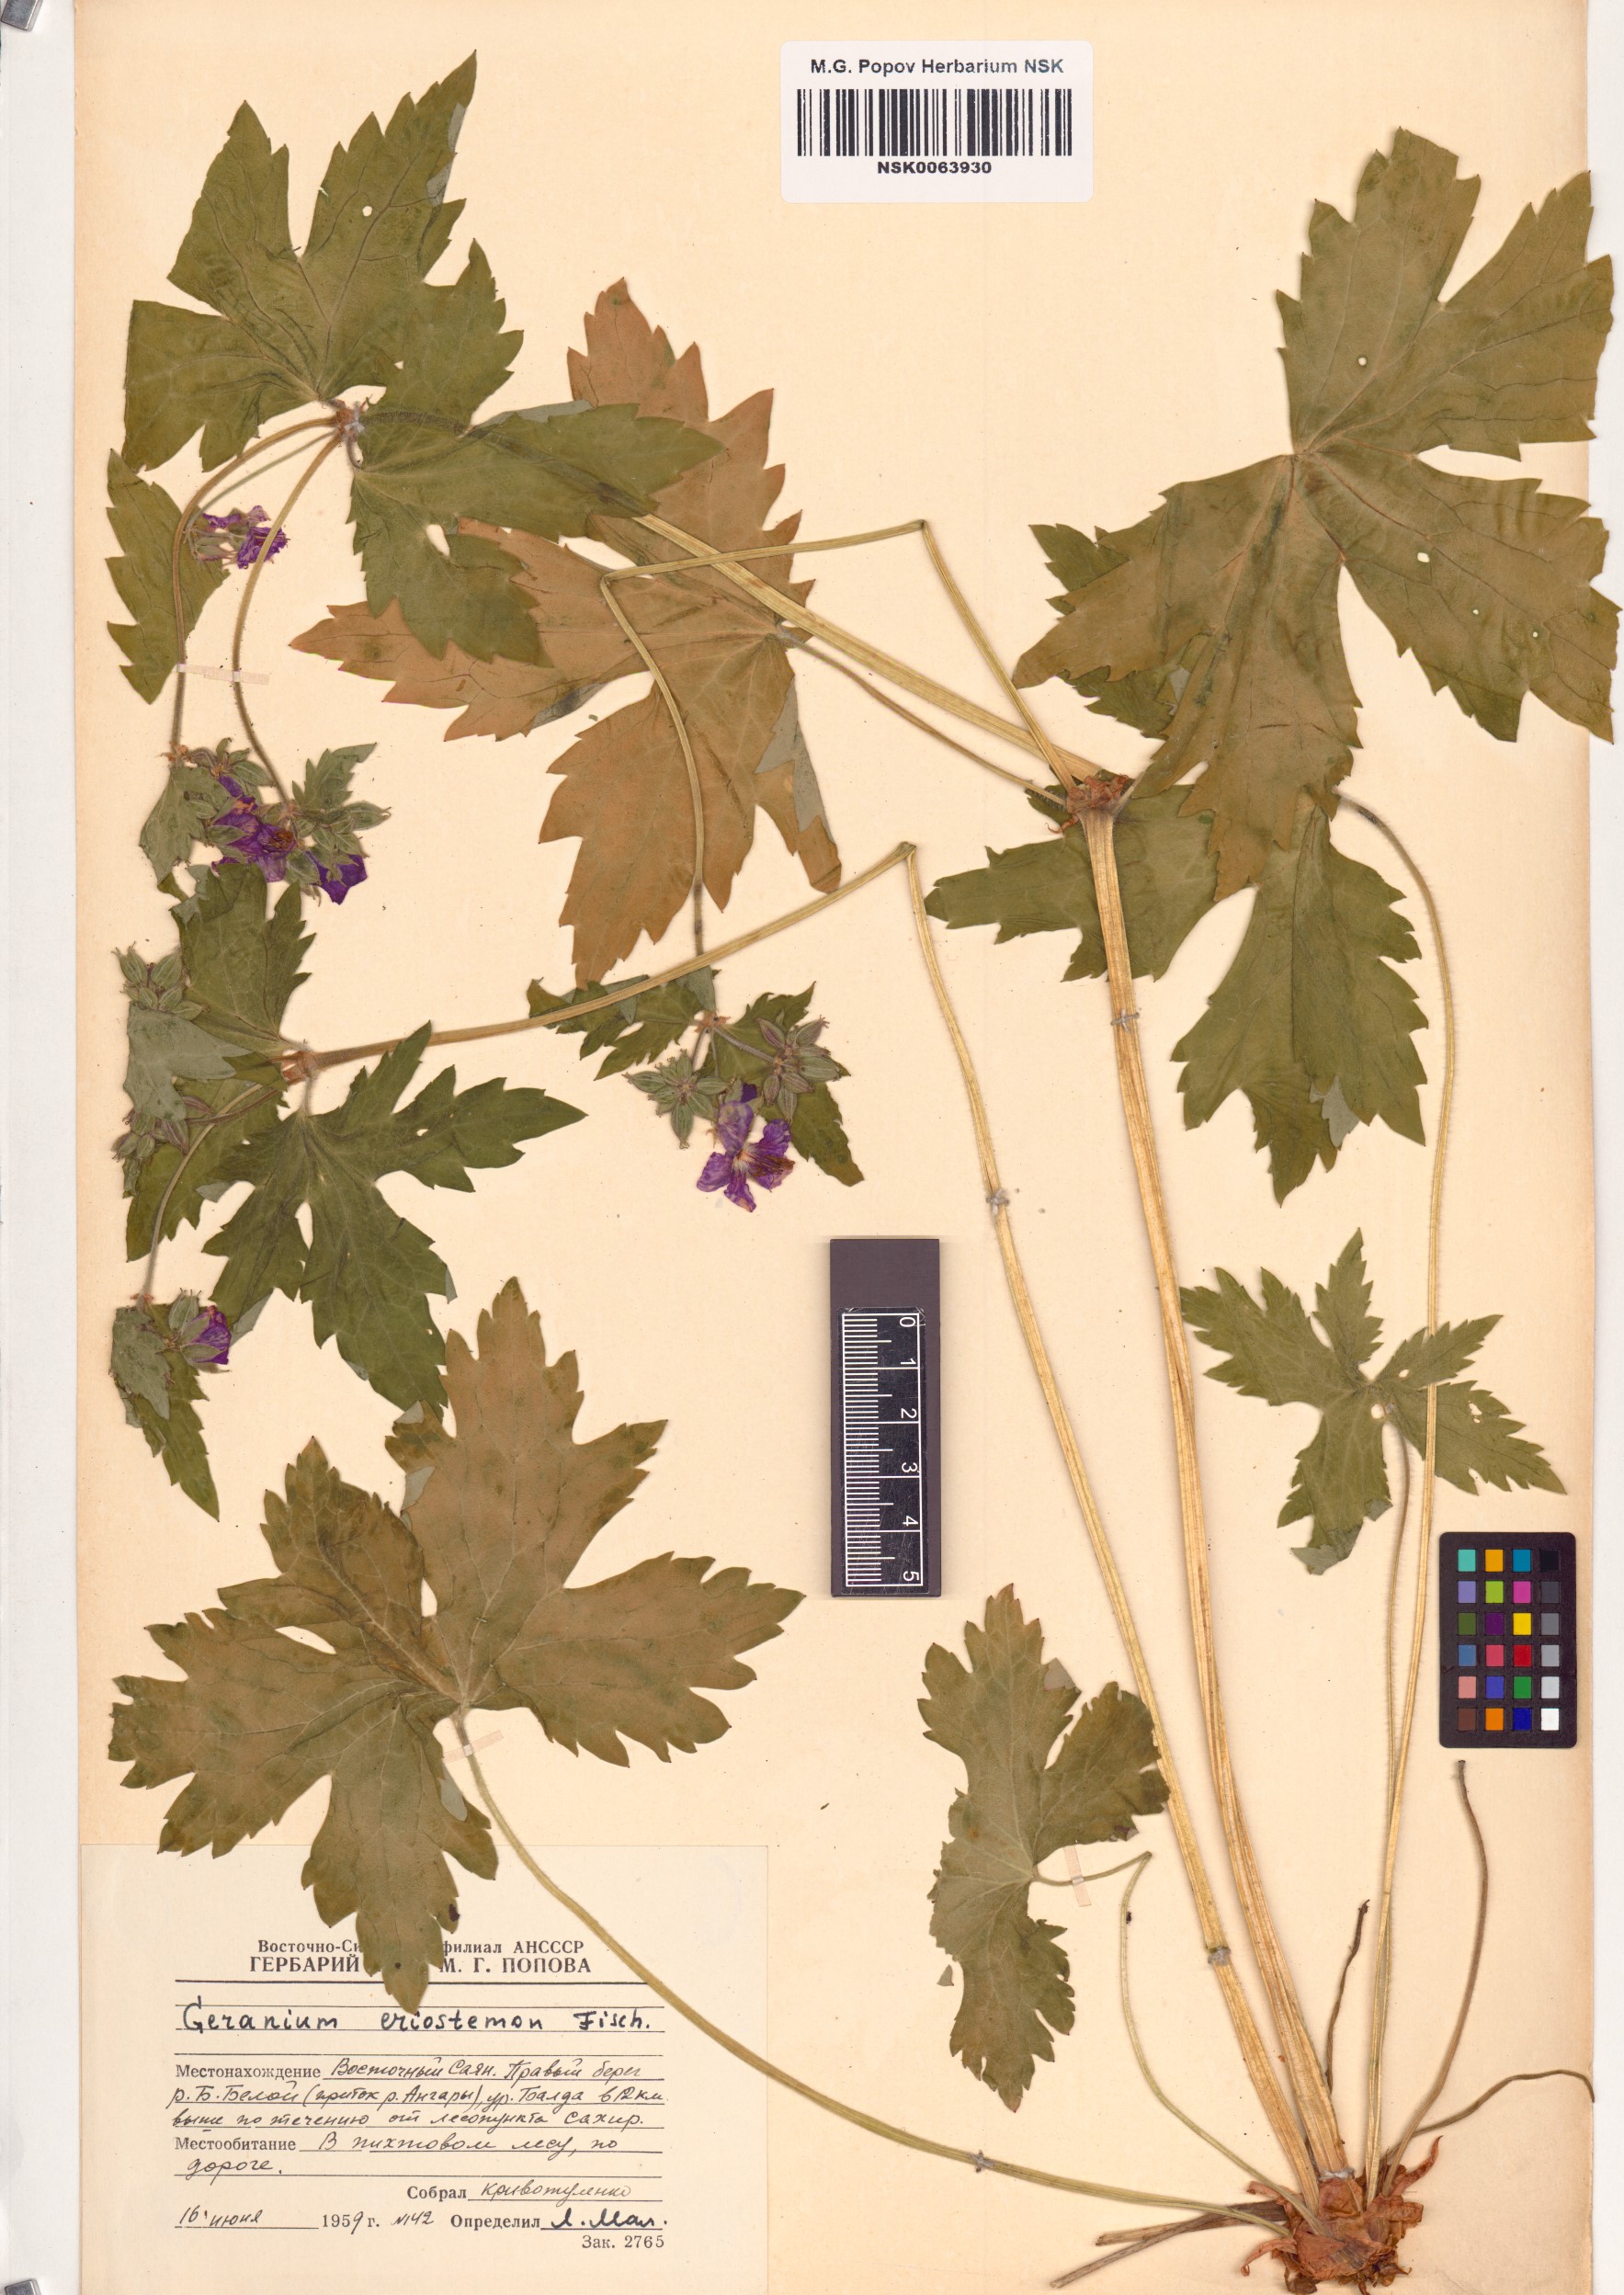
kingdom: Plantae
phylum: Tracheophyta
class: Magnoliopsida
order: Geraniales
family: Geraniaceae
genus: Geranium
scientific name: Geranium platyanthum
